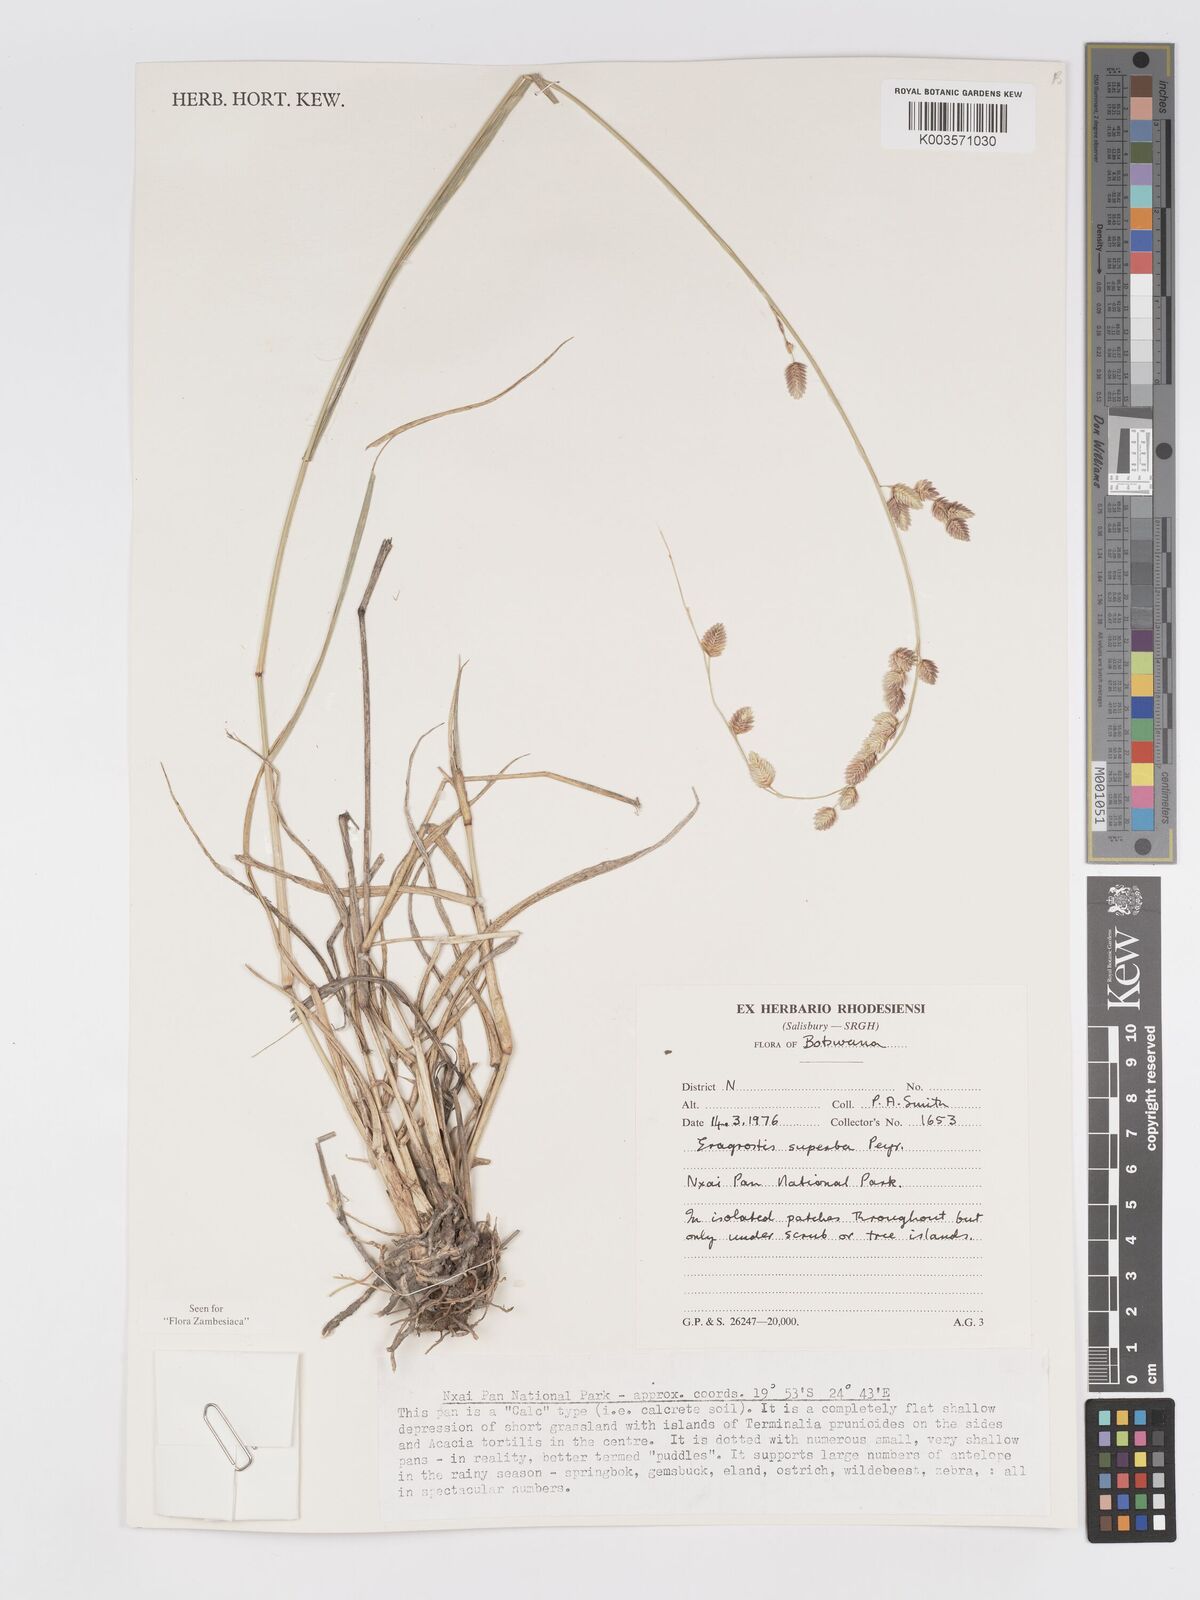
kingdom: Plantae
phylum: Tracheophyta
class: Liliopsida
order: Poales
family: Poaceae
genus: Eragrostis
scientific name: Eragrostis superba
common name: Wilman lovegrass
